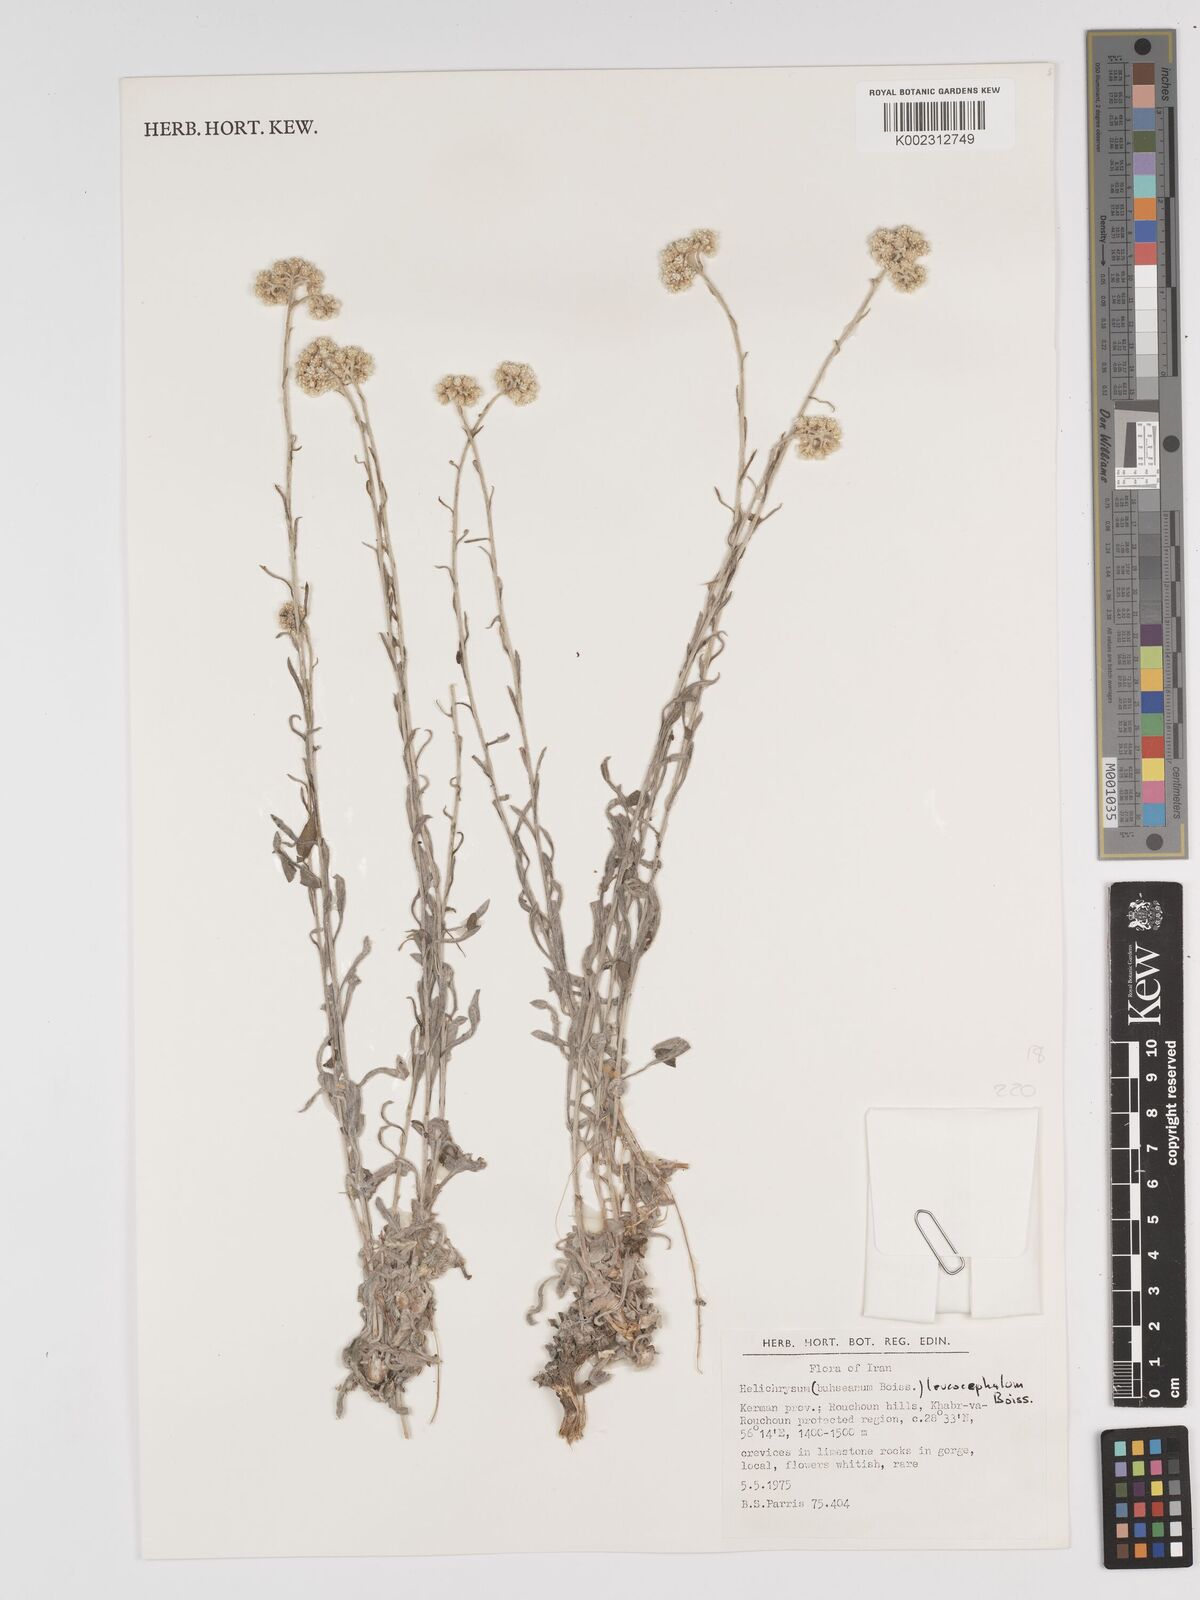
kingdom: Plantae
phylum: Tracheophyta
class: Magnoliopsida
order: Asterales
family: Asteraceae
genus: Helichrysum
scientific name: Helichrysum leucocephalum
